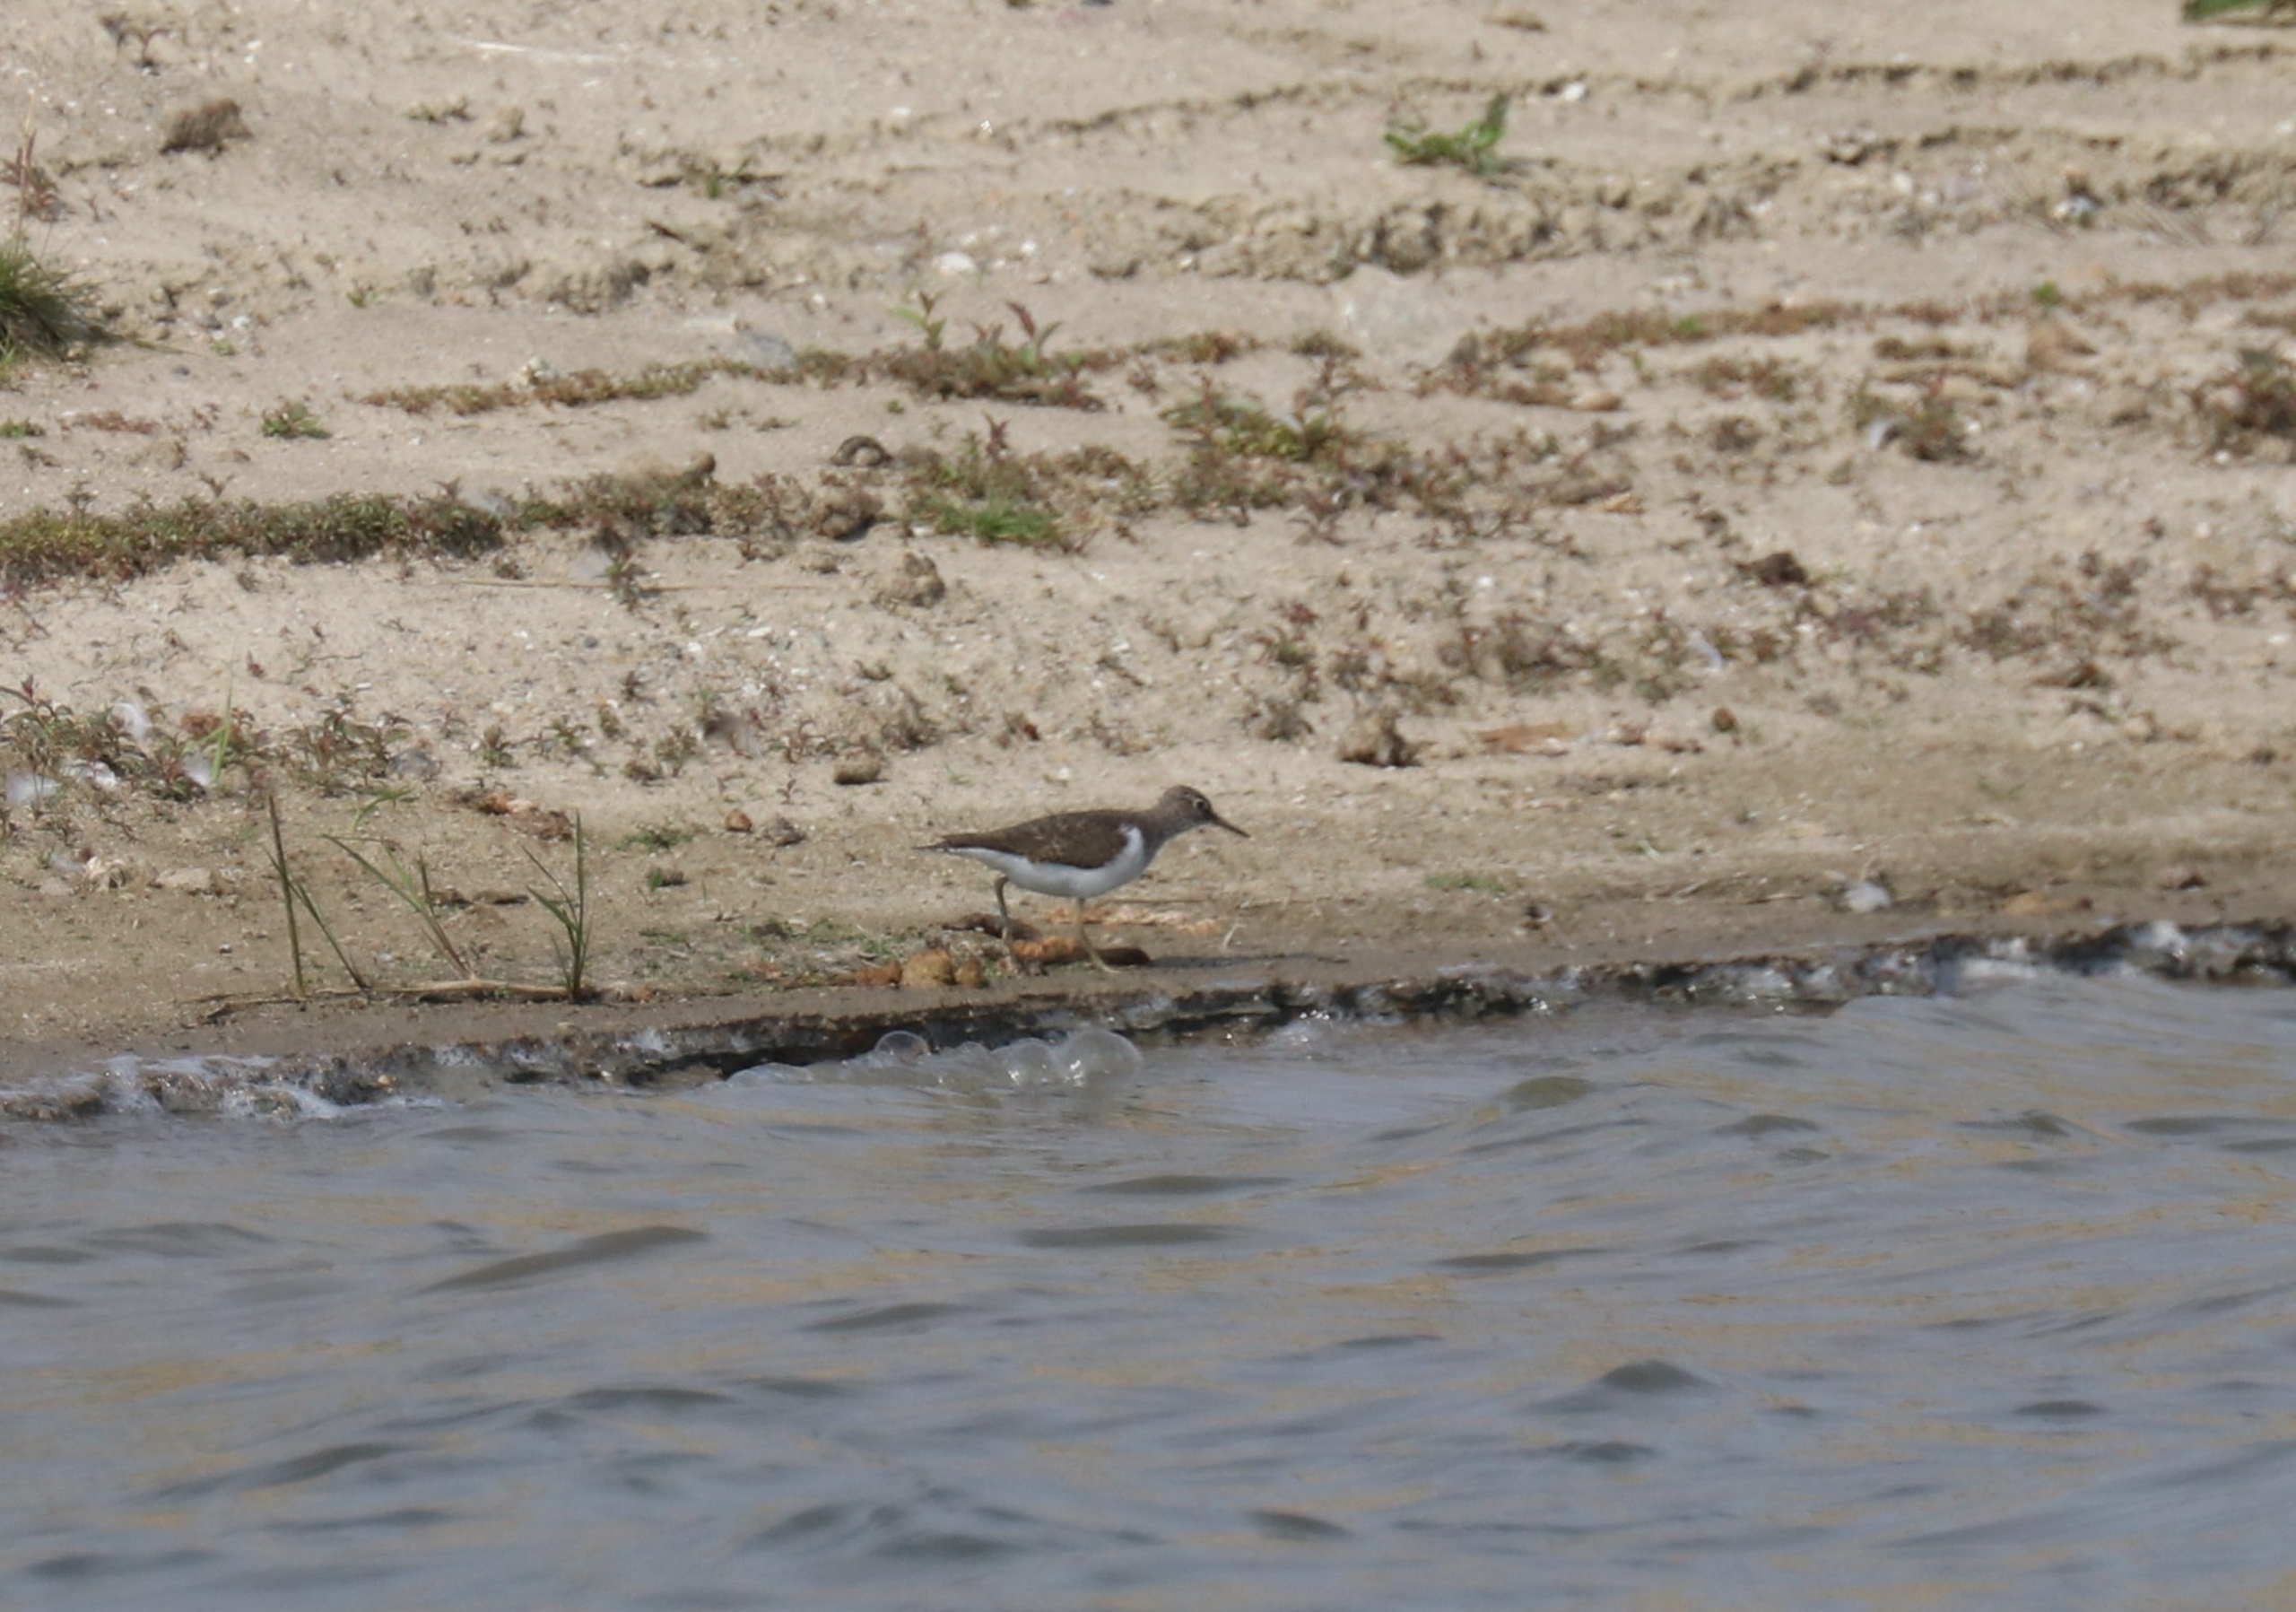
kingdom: Animalia
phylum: Chordata
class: Aves
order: Charadriiformes
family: Scolopacidae
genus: Actitis
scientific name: Actitis hypoleucos
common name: Mudderklire
